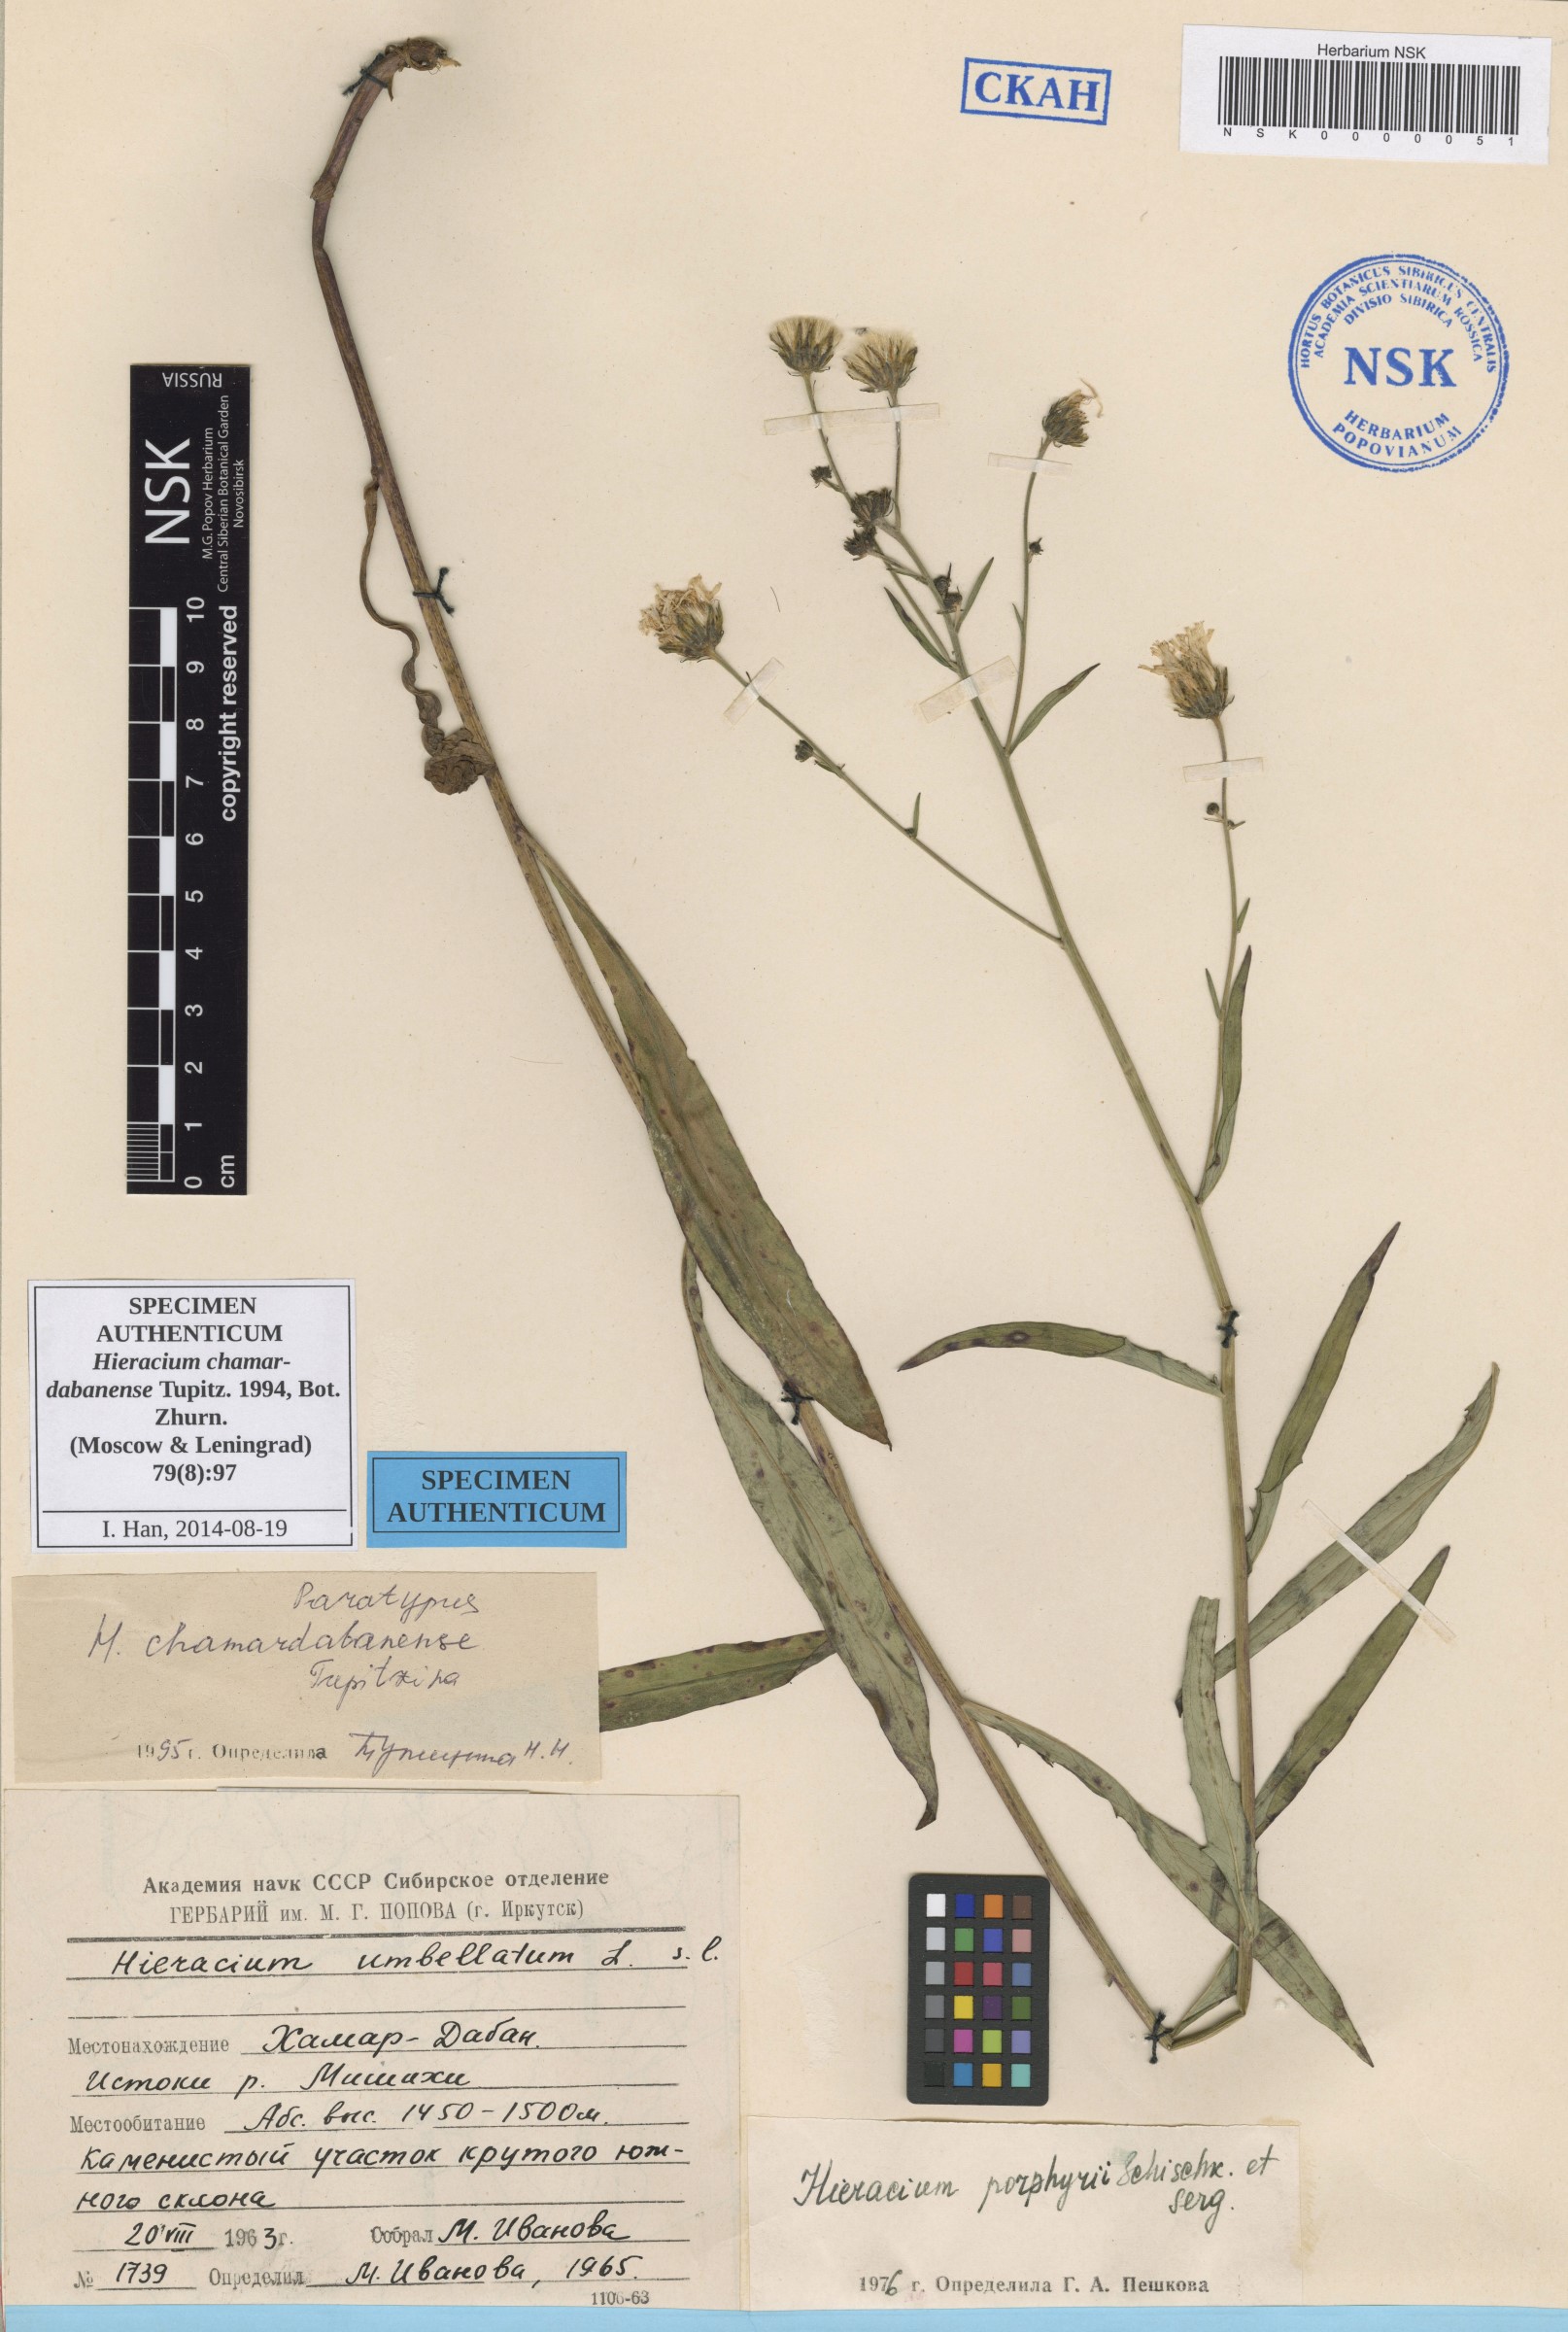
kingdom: Plantae
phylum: Tracheophyta
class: Magnoliopsida
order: Asterales
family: Asteraceae
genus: Hieracium
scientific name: Hieracium chamardabanense
